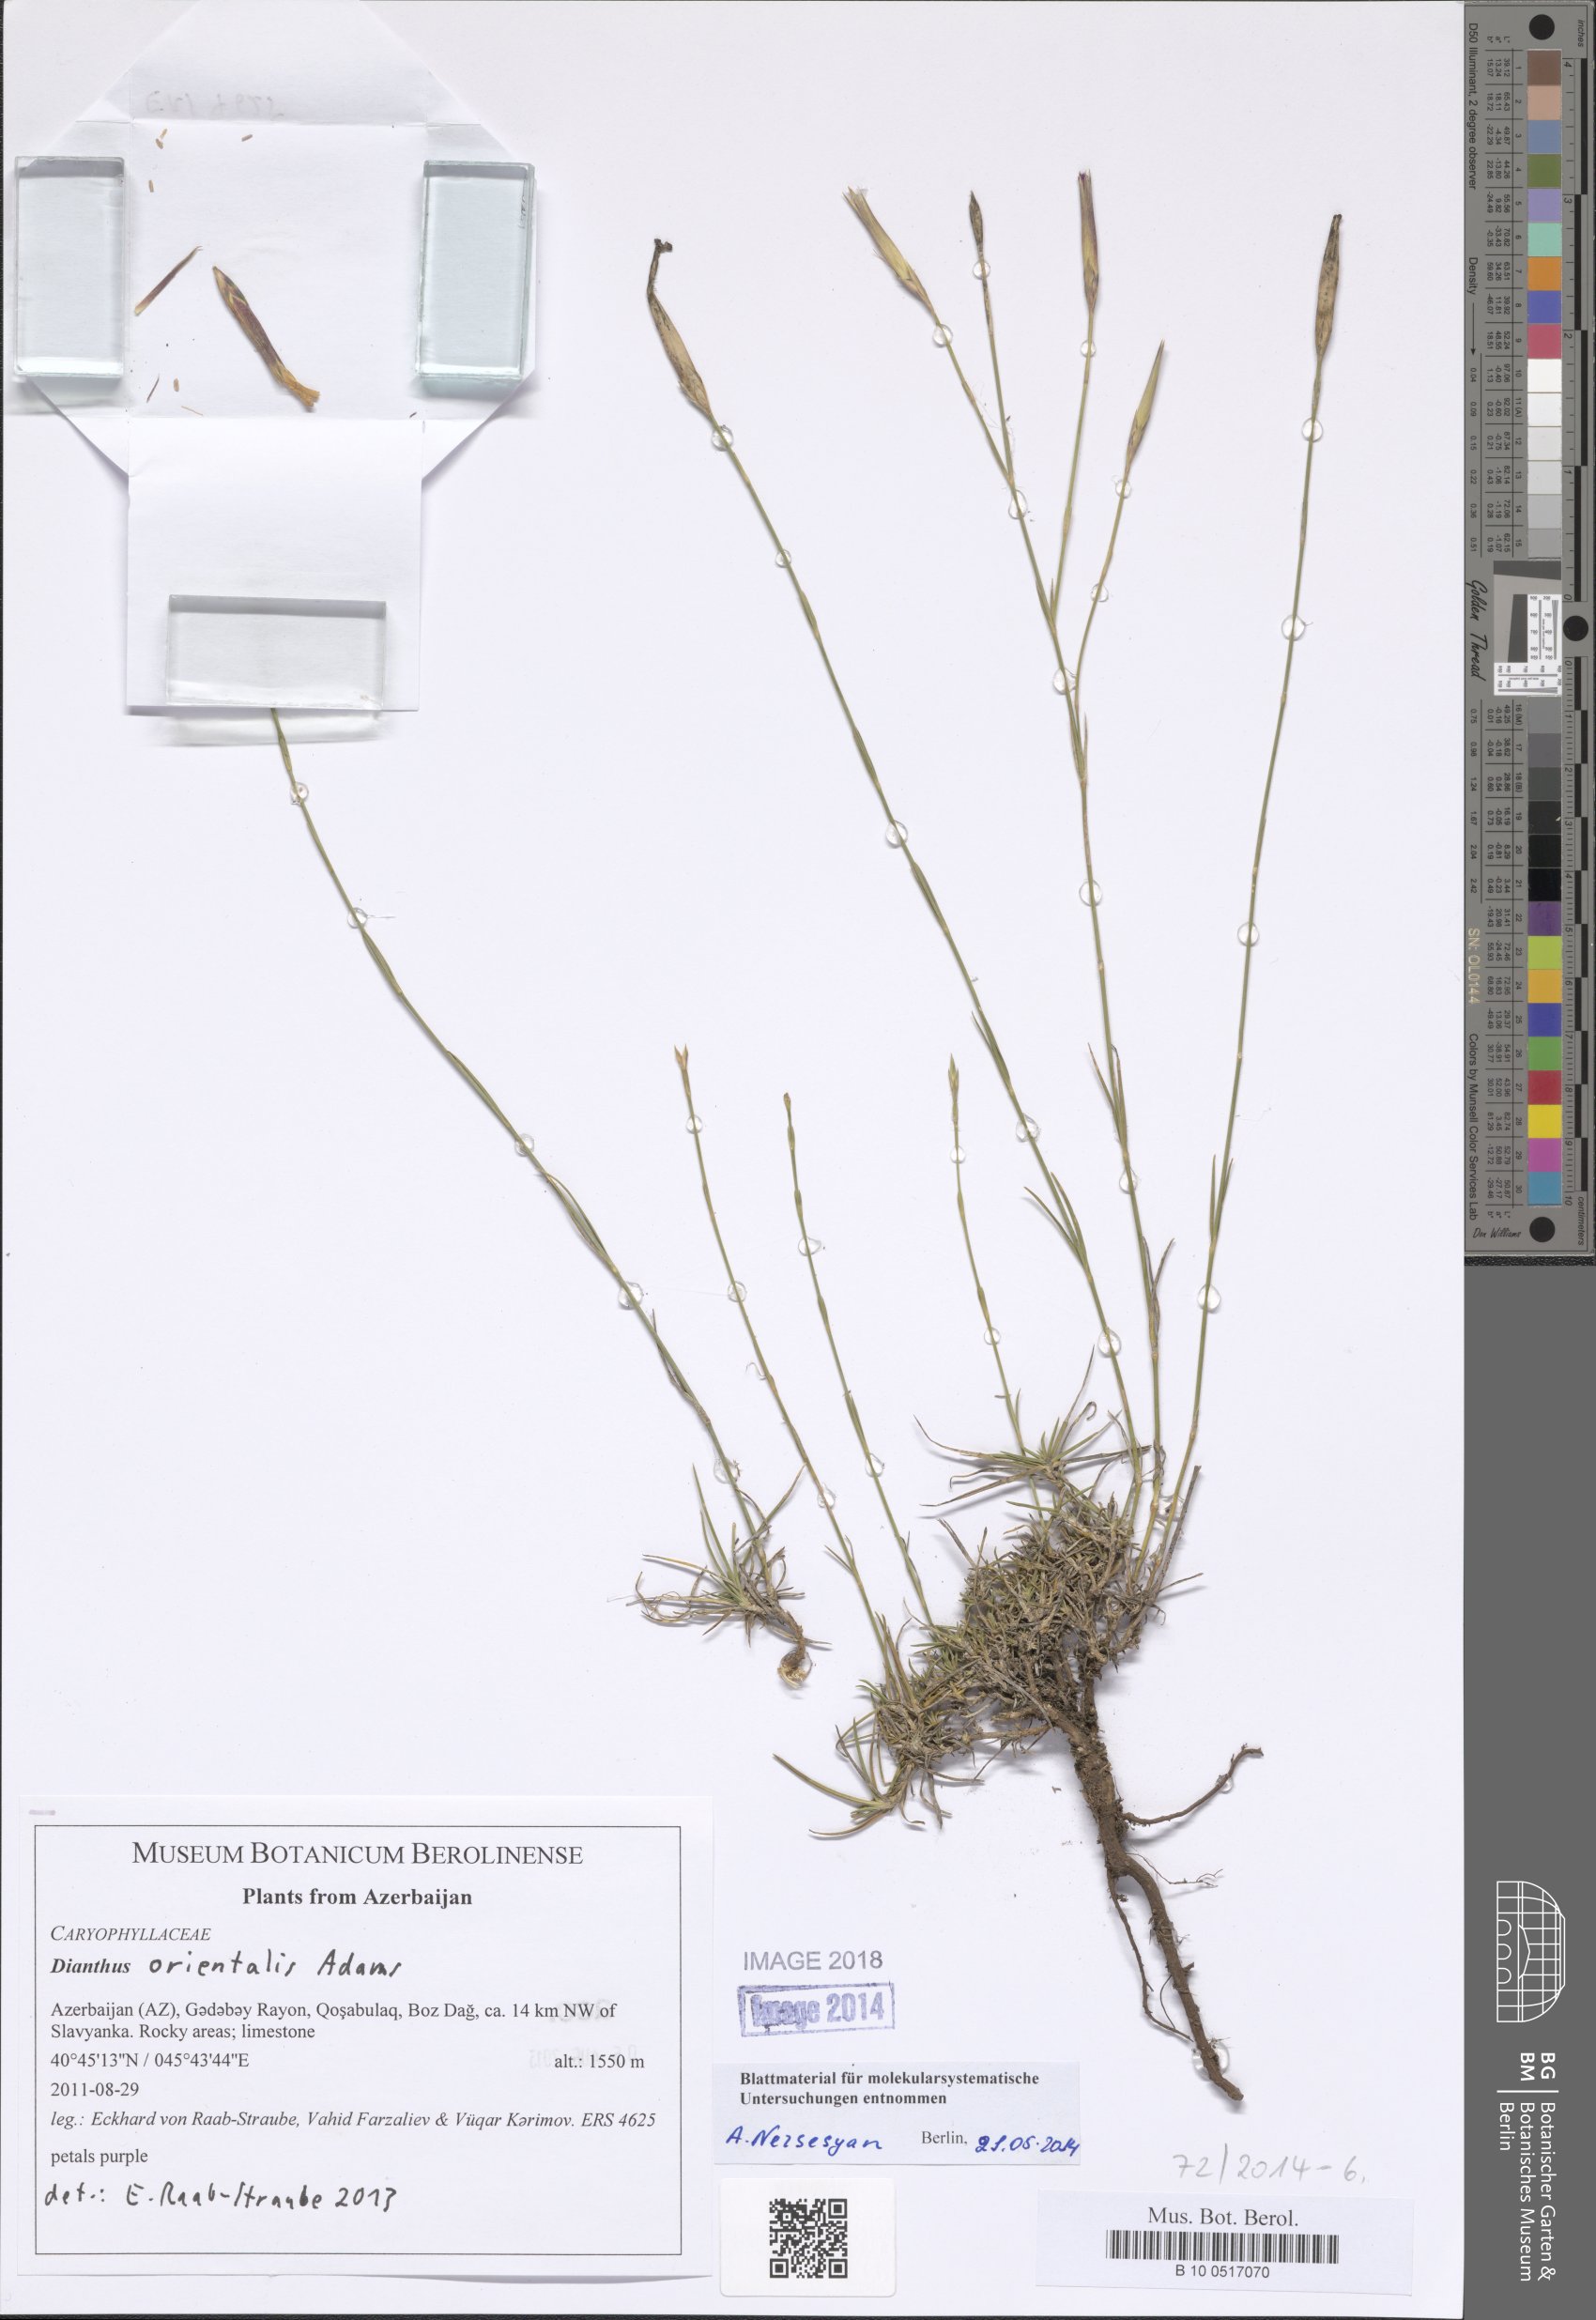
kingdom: Plantae
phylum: Tracheophyta
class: Magnoliopsida
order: Caryophyllales
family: Caryophyllaceae
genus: Dianthus
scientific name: Dianthus orientalis
